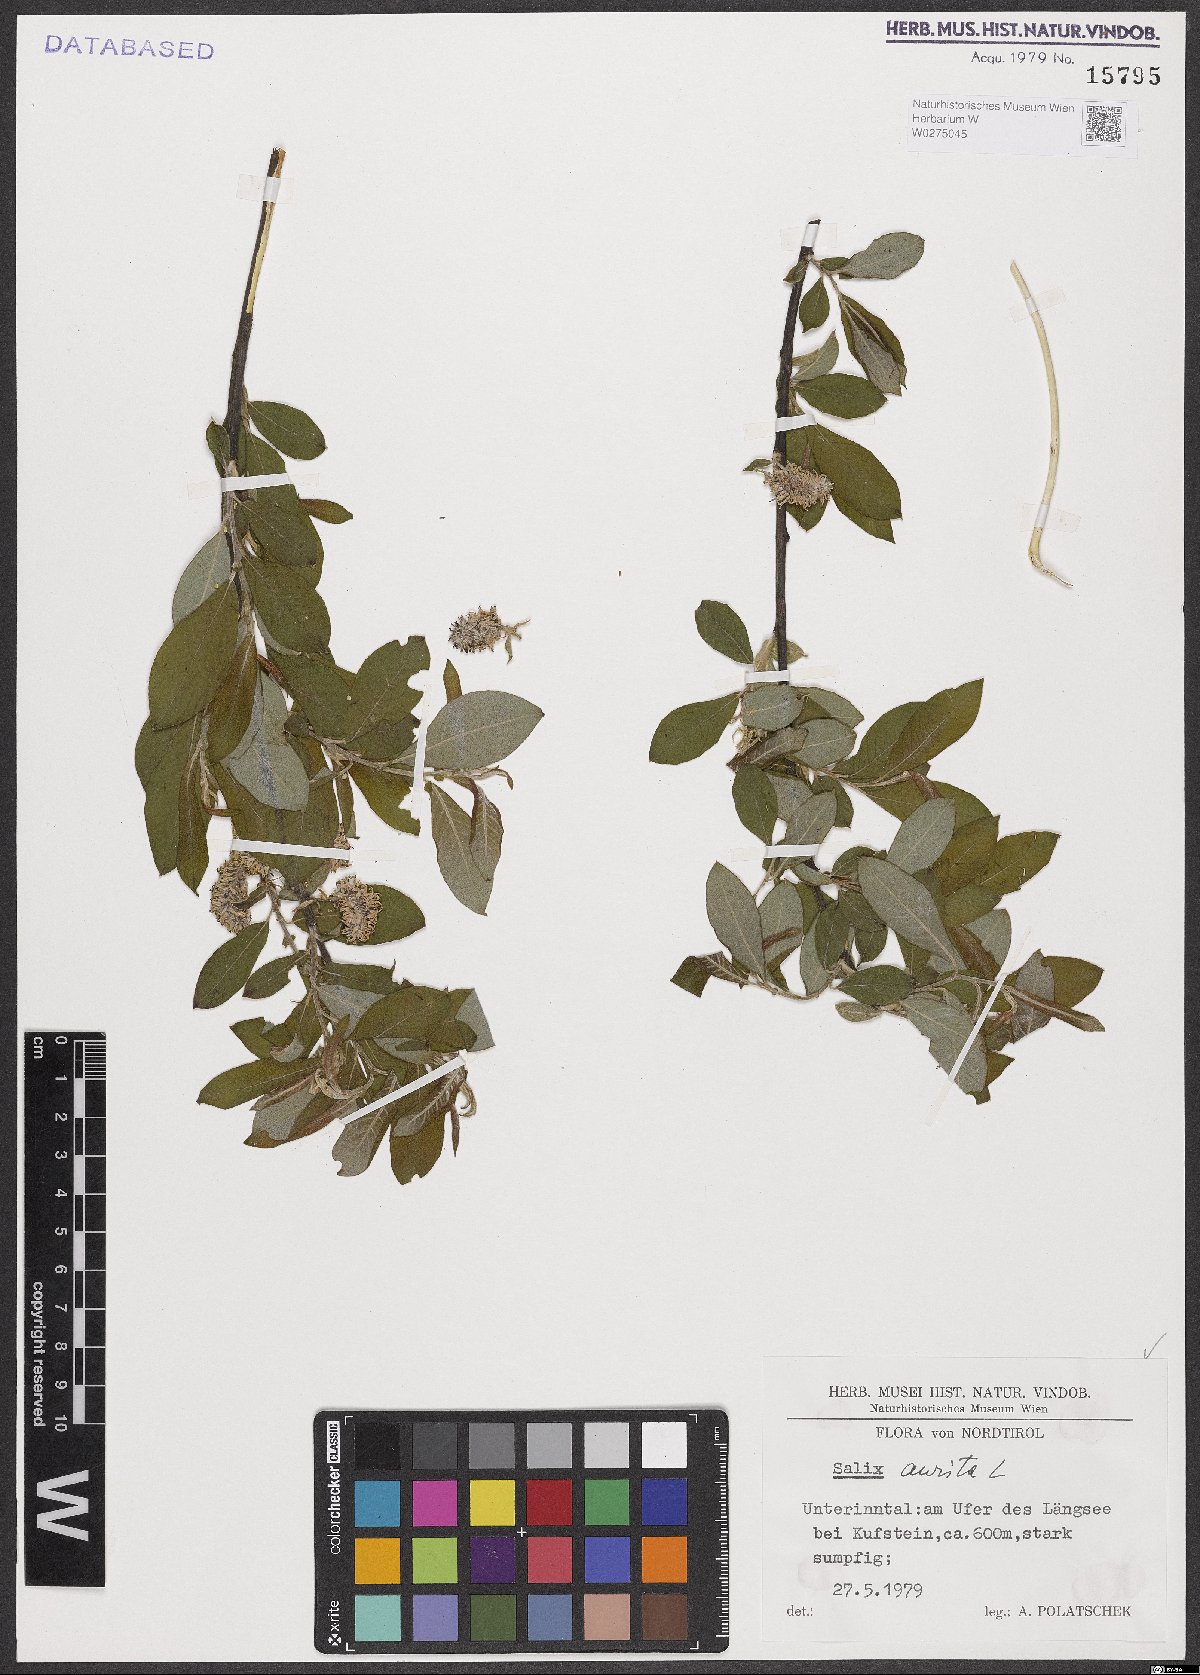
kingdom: Plantae
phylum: Tracheophyta
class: Magnoliopsida
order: Malpighiales
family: Salicaceae
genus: Salix
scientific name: Salix aurita
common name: Eared willow
